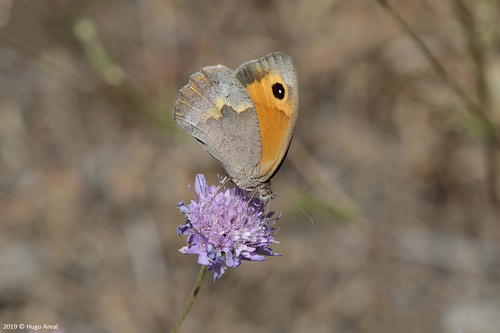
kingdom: Animalia
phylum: Arthropoda
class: Insecta
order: Lepidoptera
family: Nymphalidae
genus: Maniola
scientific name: Maniola jurtina
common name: Meadow brown
